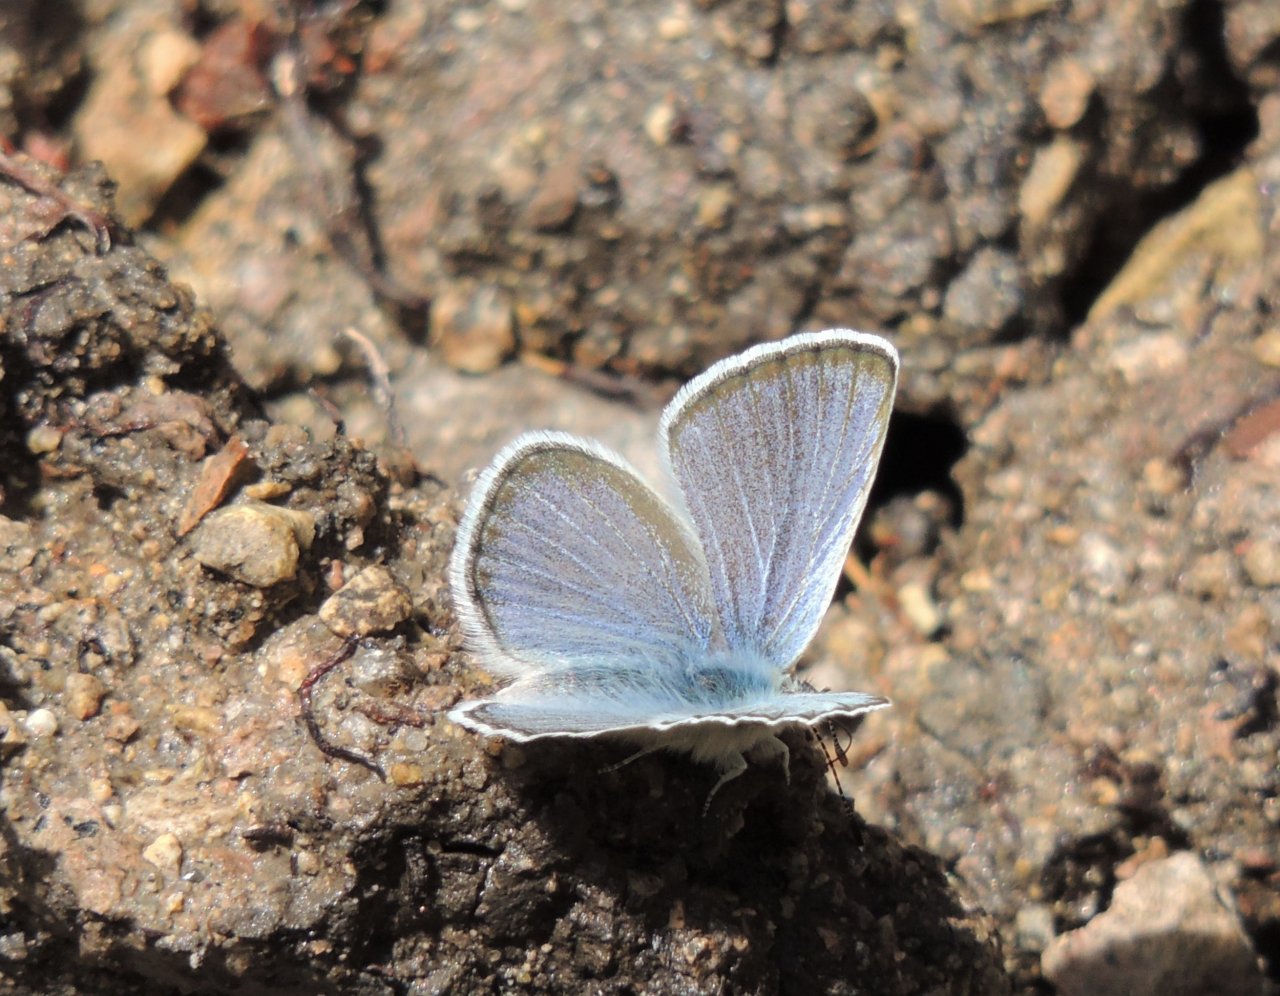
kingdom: Animalia
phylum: Arthropoda
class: Insecta
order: Lepidoptera
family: Lycaenidae
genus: Icaricia
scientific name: Icaricia icarioides
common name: Boisduval's Blue
